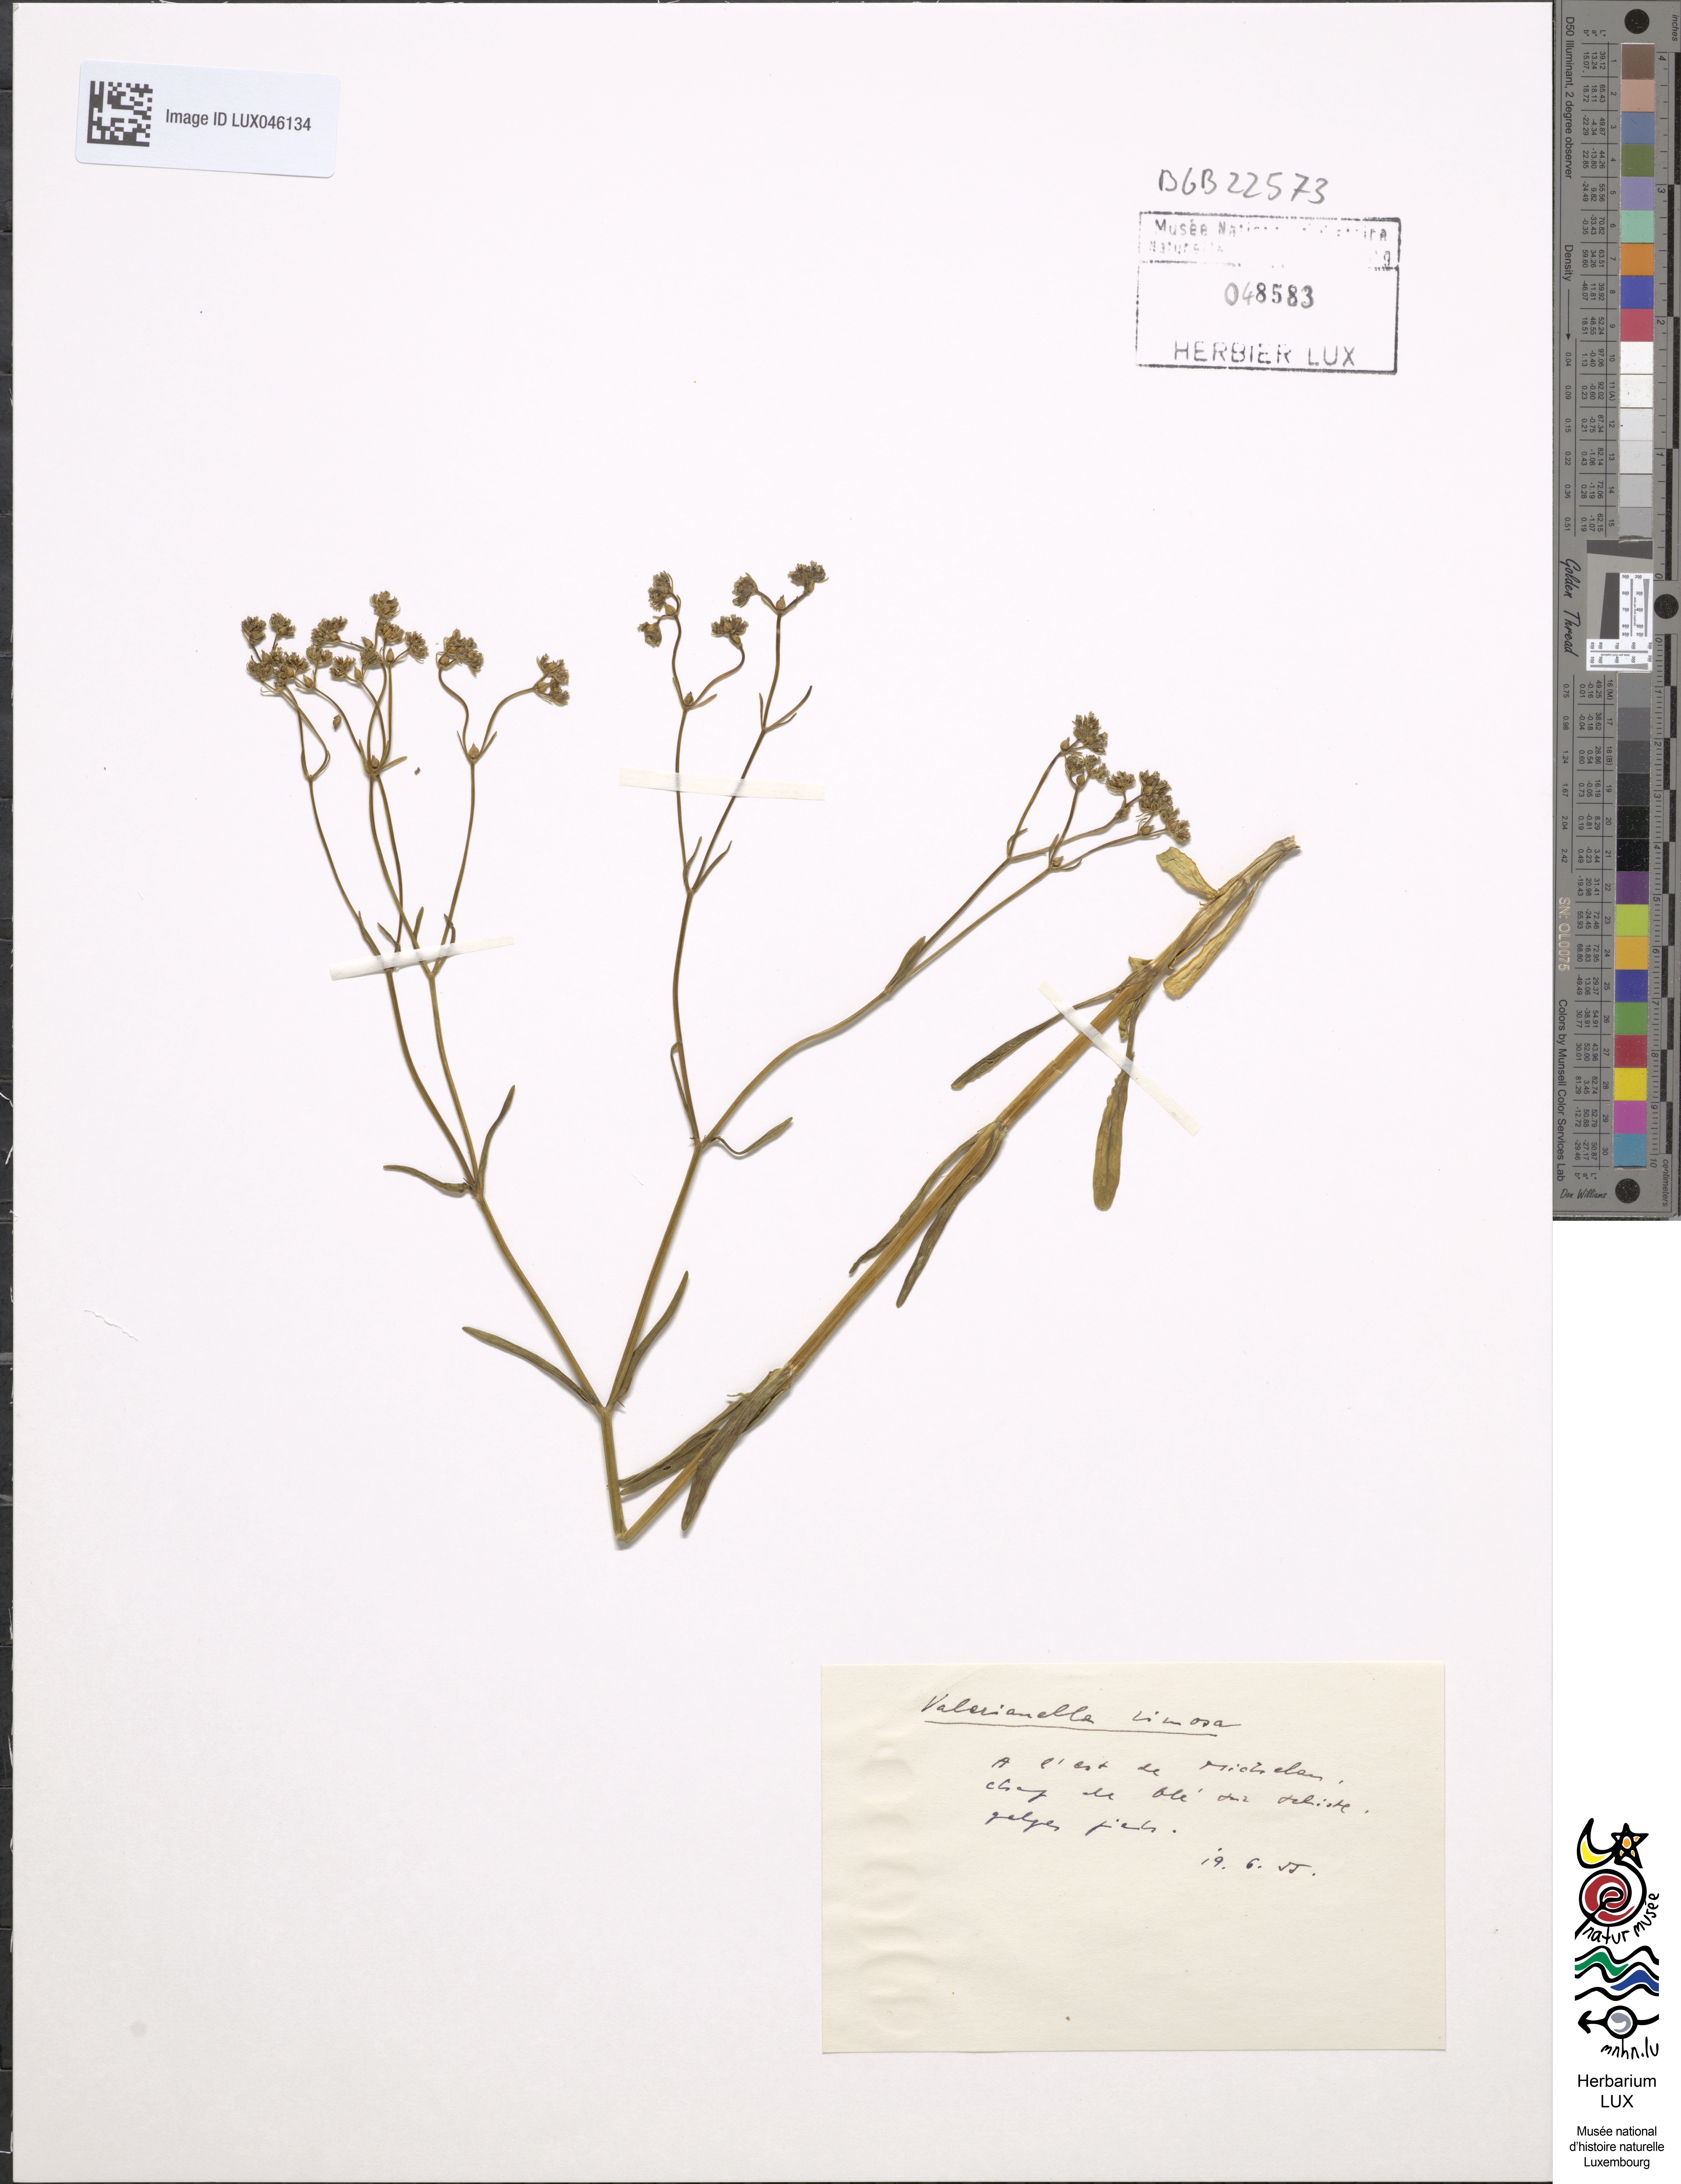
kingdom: Plantae
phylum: Tracheophyta
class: Magnoliopsida
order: Dipsacales
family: Caprifoliaceae
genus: Valerianella
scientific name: Valerianella rimosa
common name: Broad-fruited cornsalad
